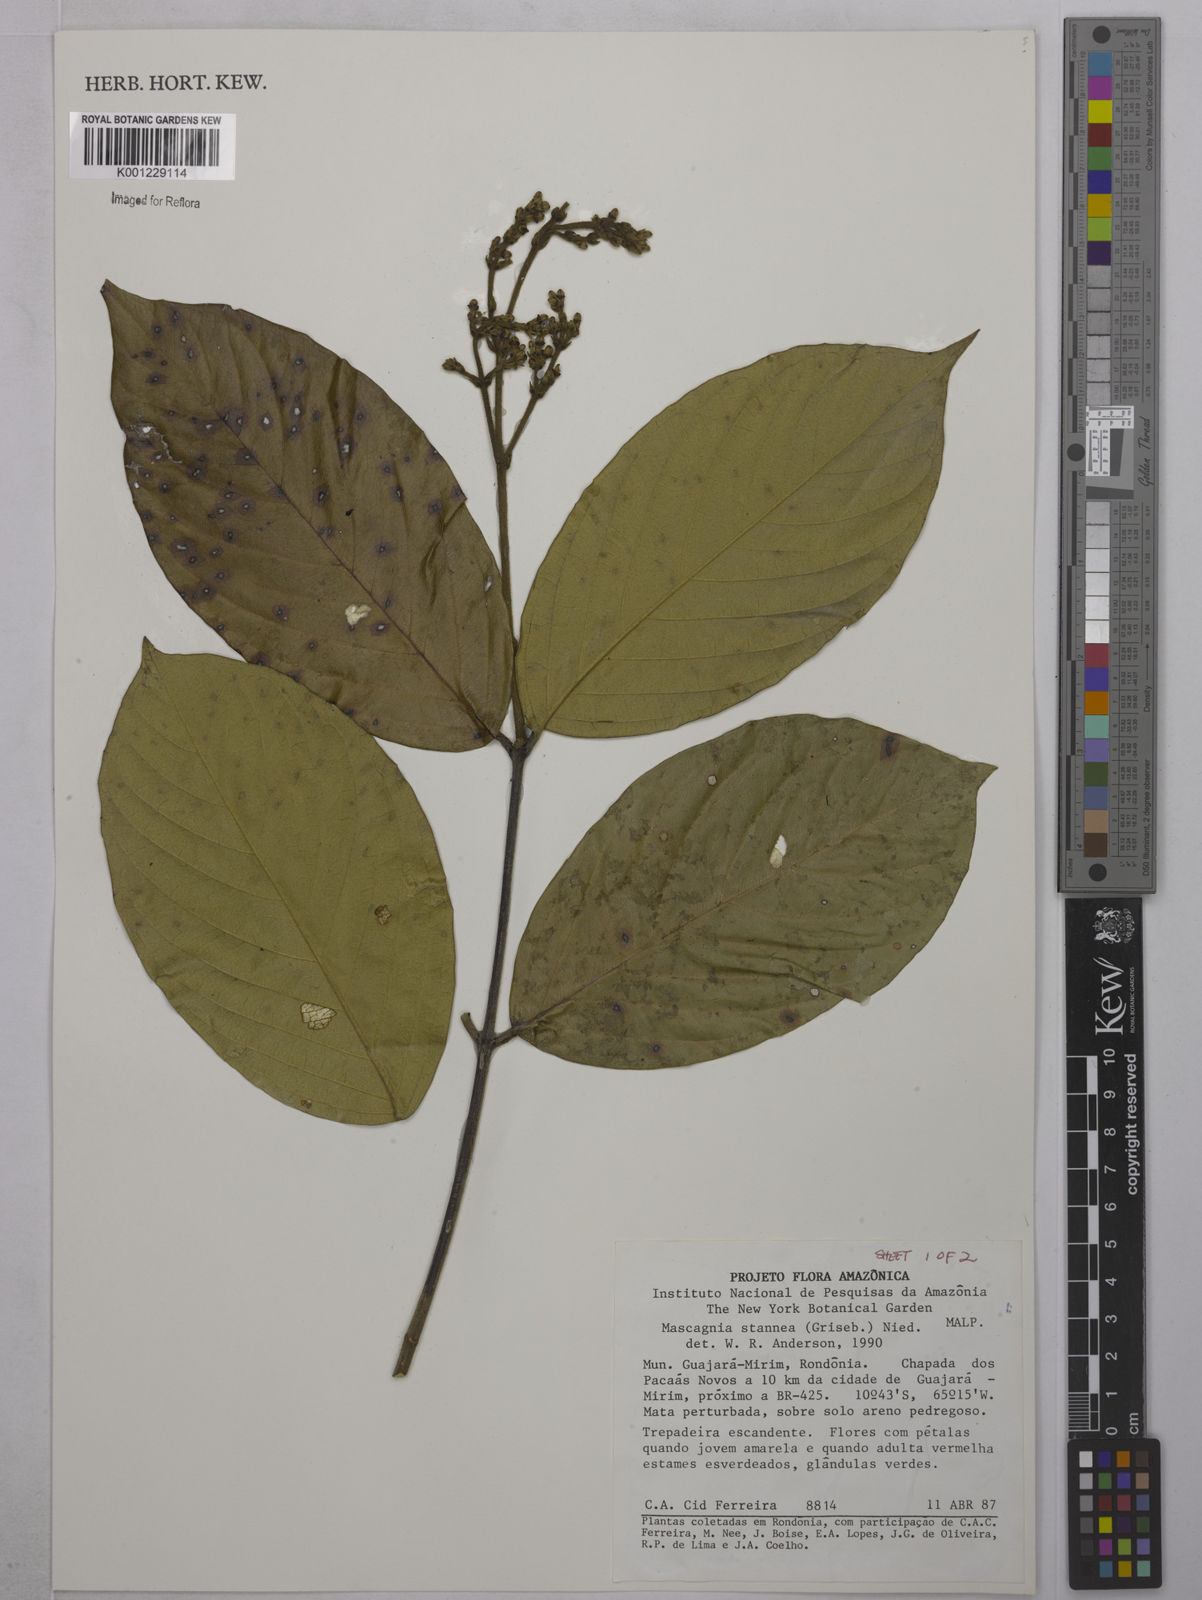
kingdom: Plantae
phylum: Tracheophyta
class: Magnoliopsida
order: Malpighiales
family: Malpighiaceae
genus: Niedenzuella
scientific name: Niedenzuella stannea
